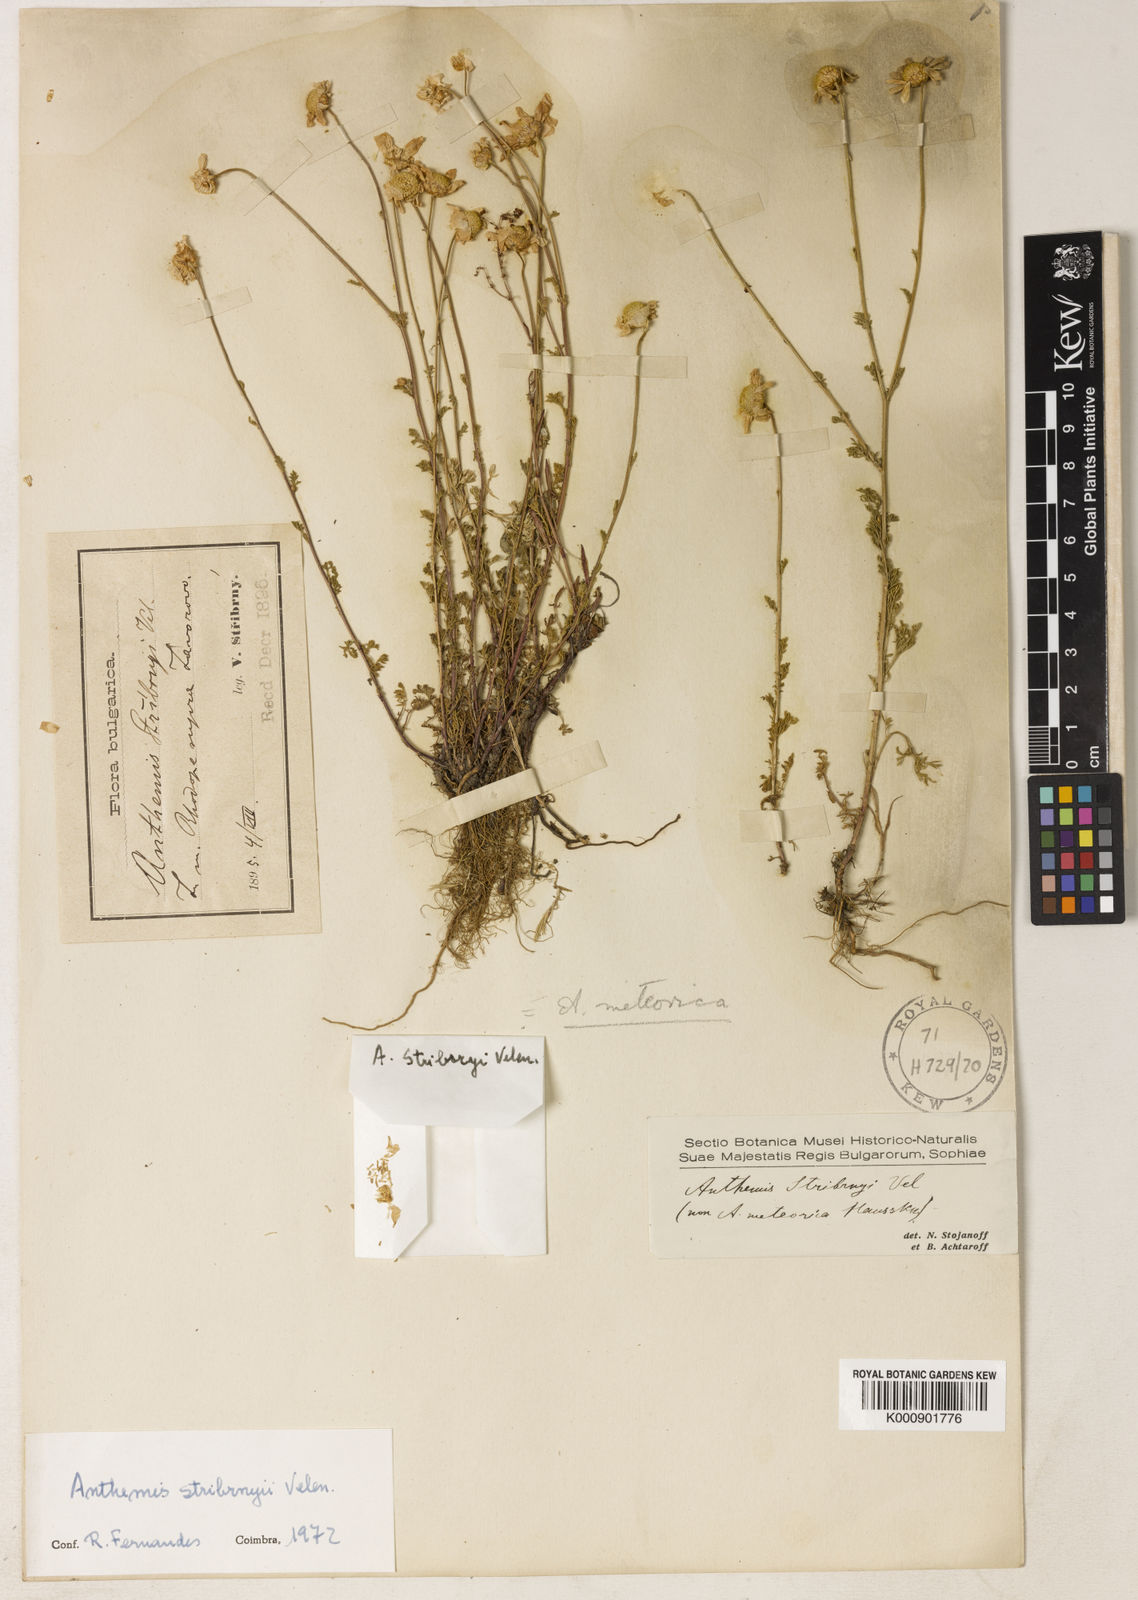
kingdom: Plantae
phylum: Tracheophyta
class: Magnoliopsida
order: Asterales
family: Asteraceae
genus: Anthemis
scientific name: Anthemis macedonica
